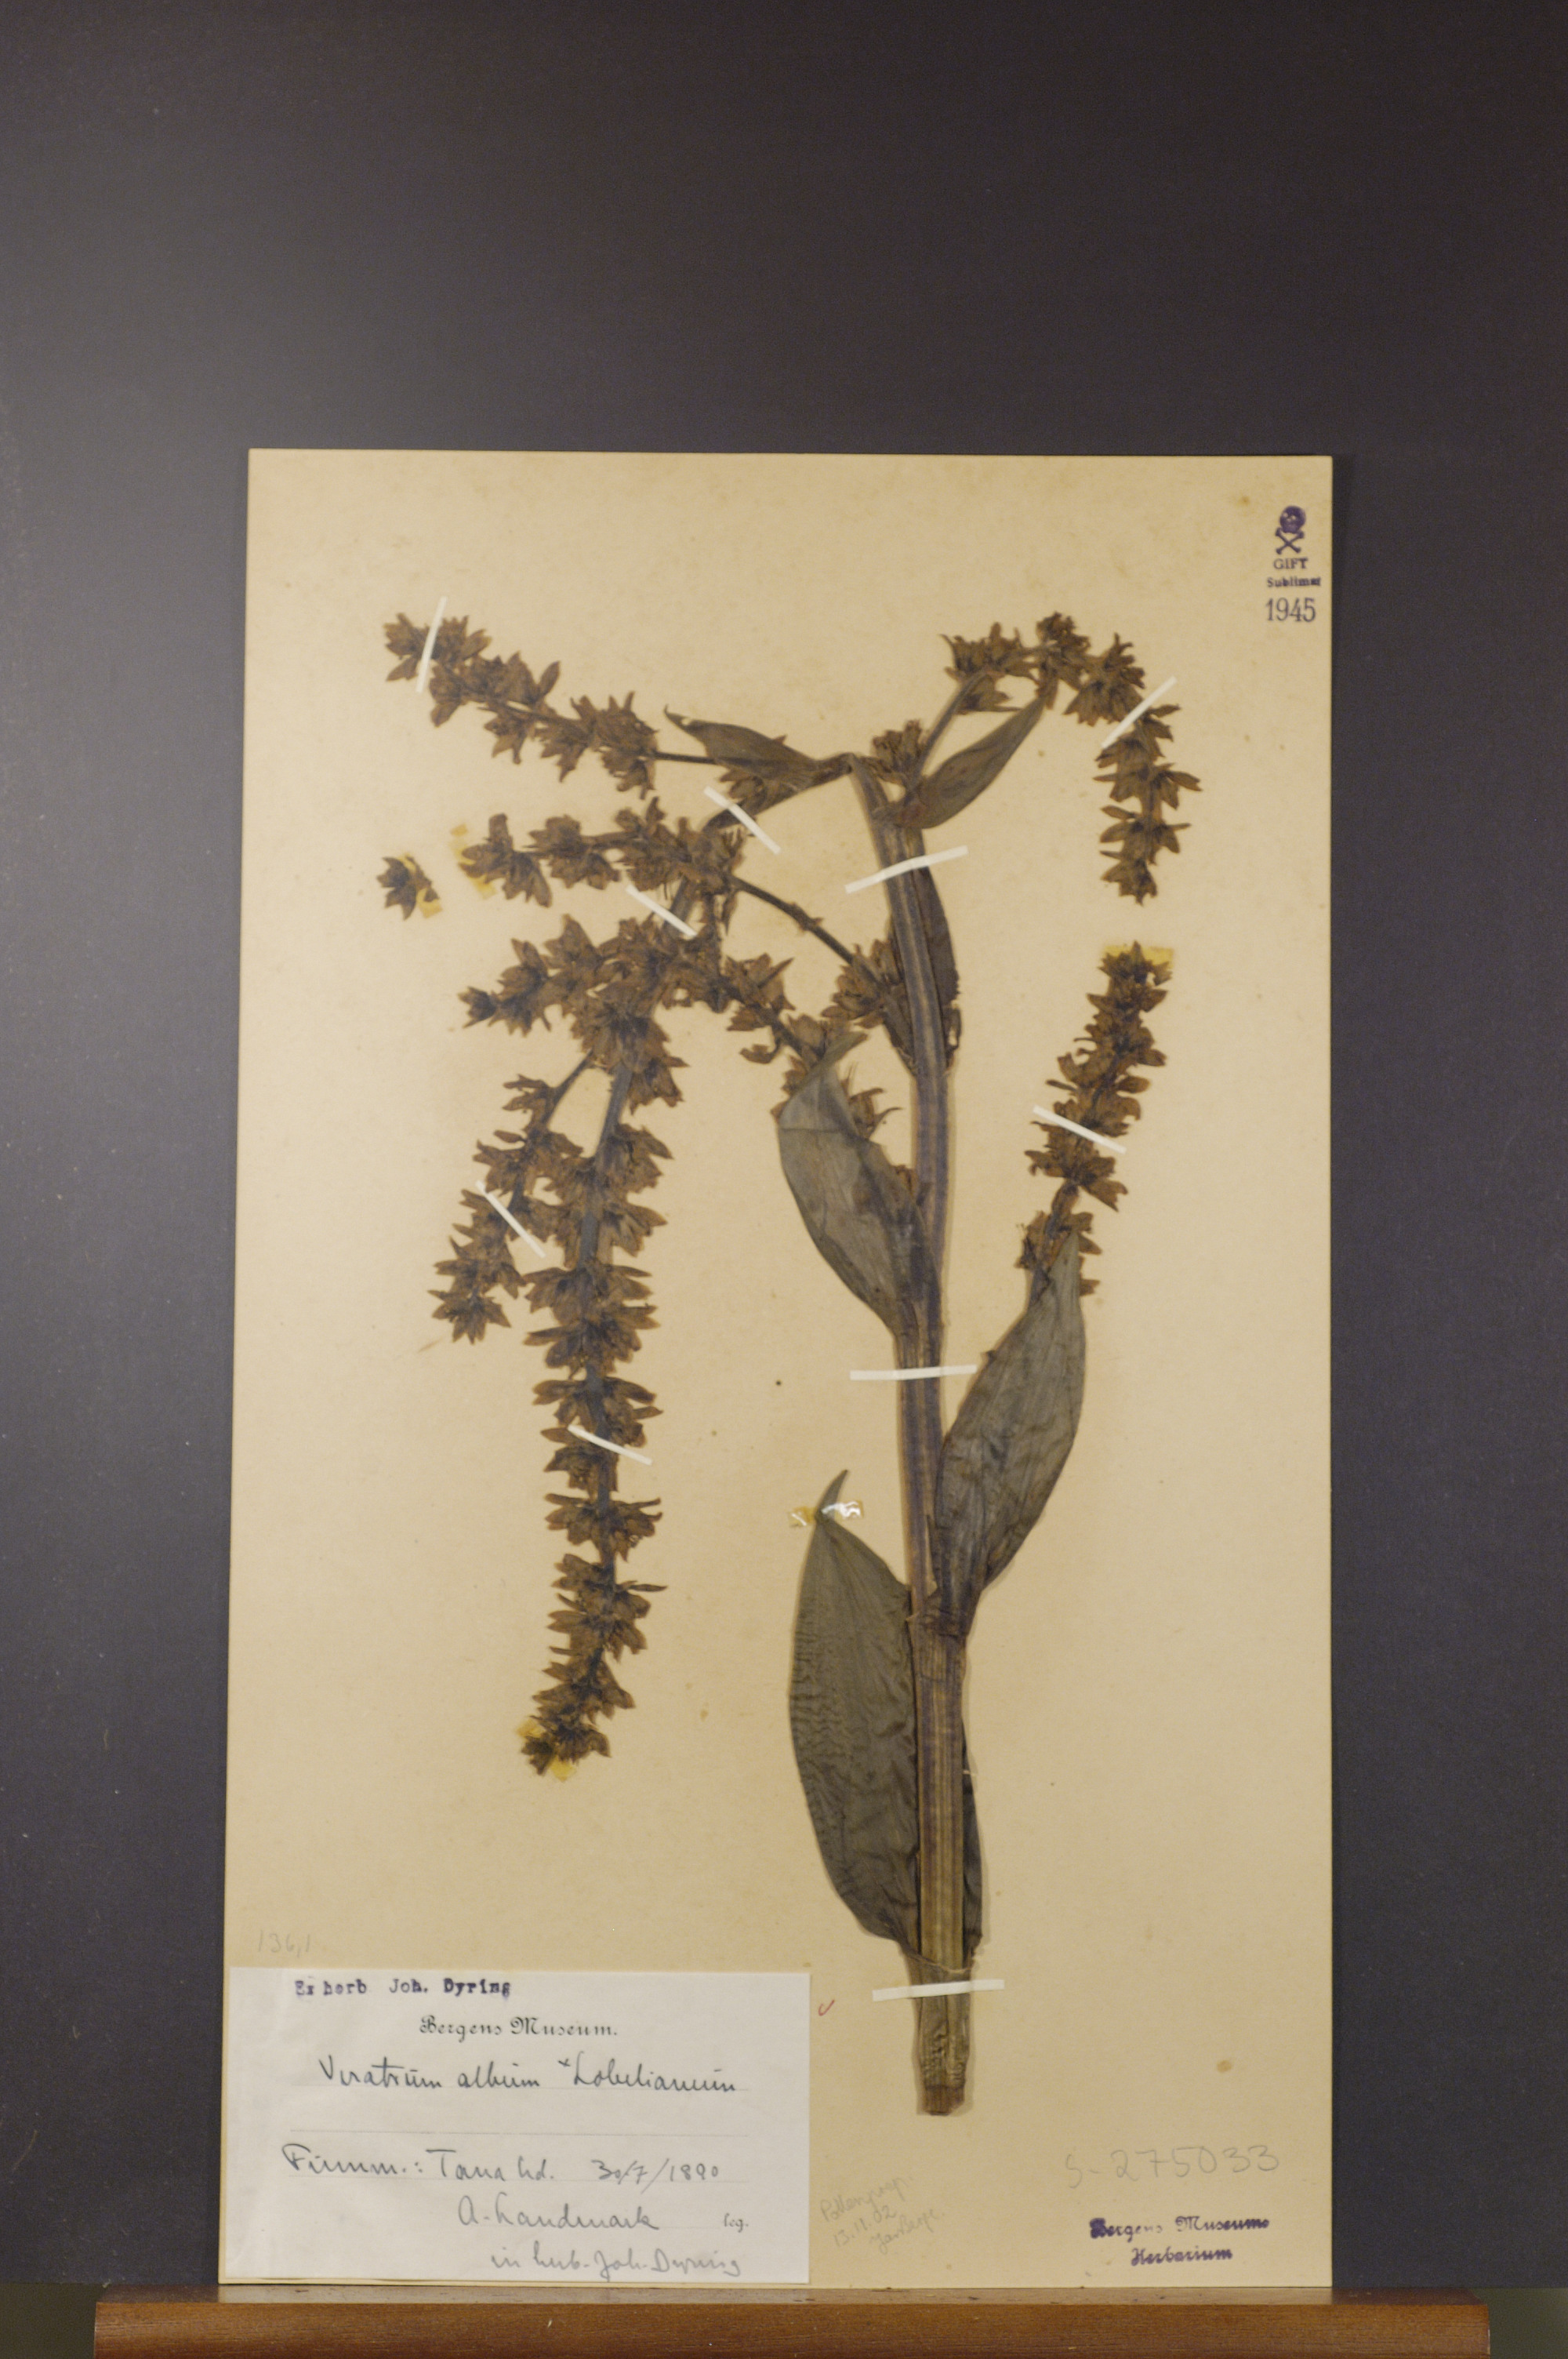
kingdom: Plantae
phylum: Tracheophyta
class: Liliopsida
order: Liliales
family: Melanthiaceae
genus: Veratrum
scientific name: Veratrum lobelianum
